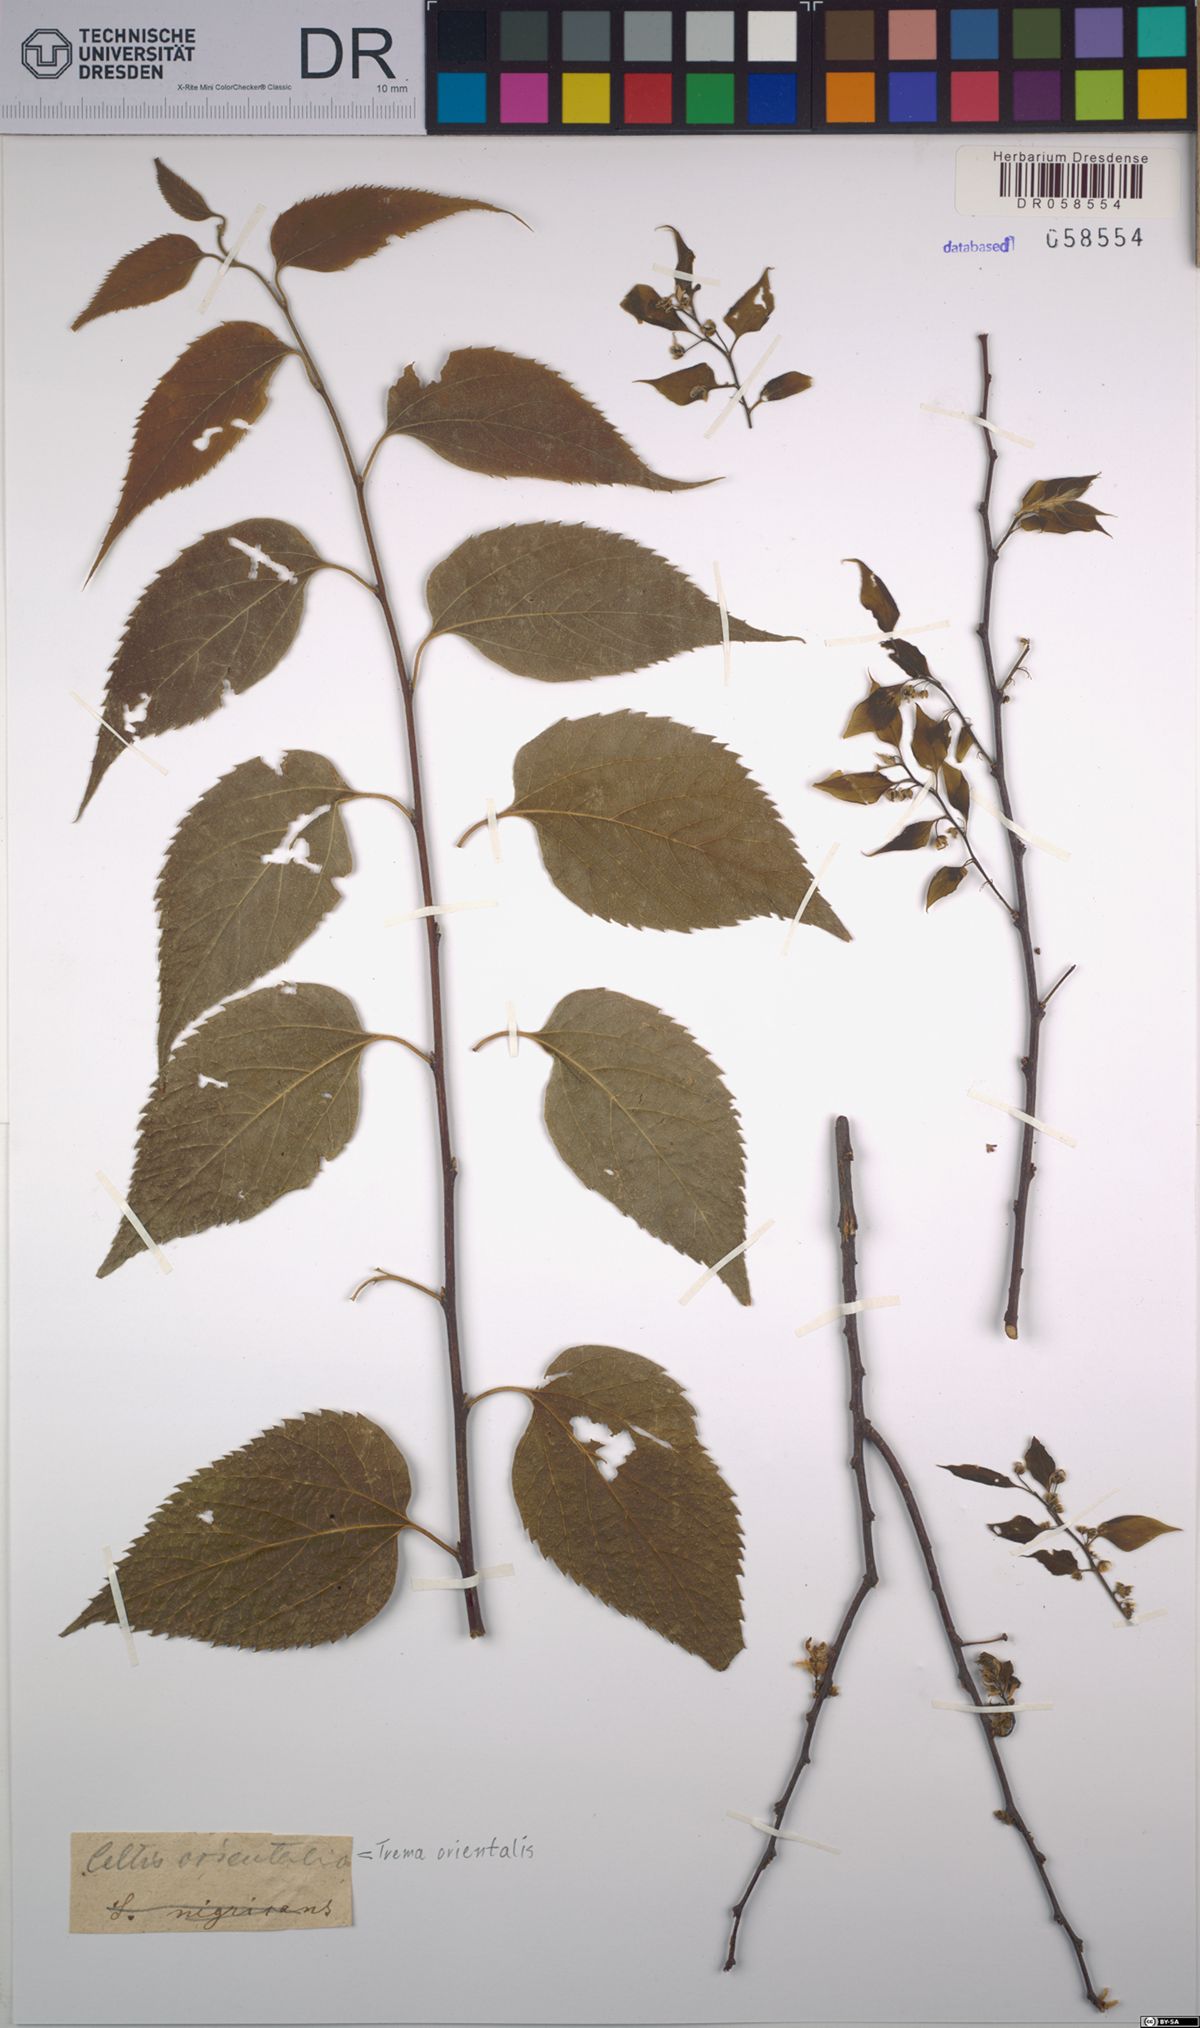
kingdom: Plantae
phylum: Tracheophyta
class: Magnoliopsida
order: Rosales
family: Cannabaceae
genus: Trema
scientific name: Trema orientale
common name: Indian charcoal tree
